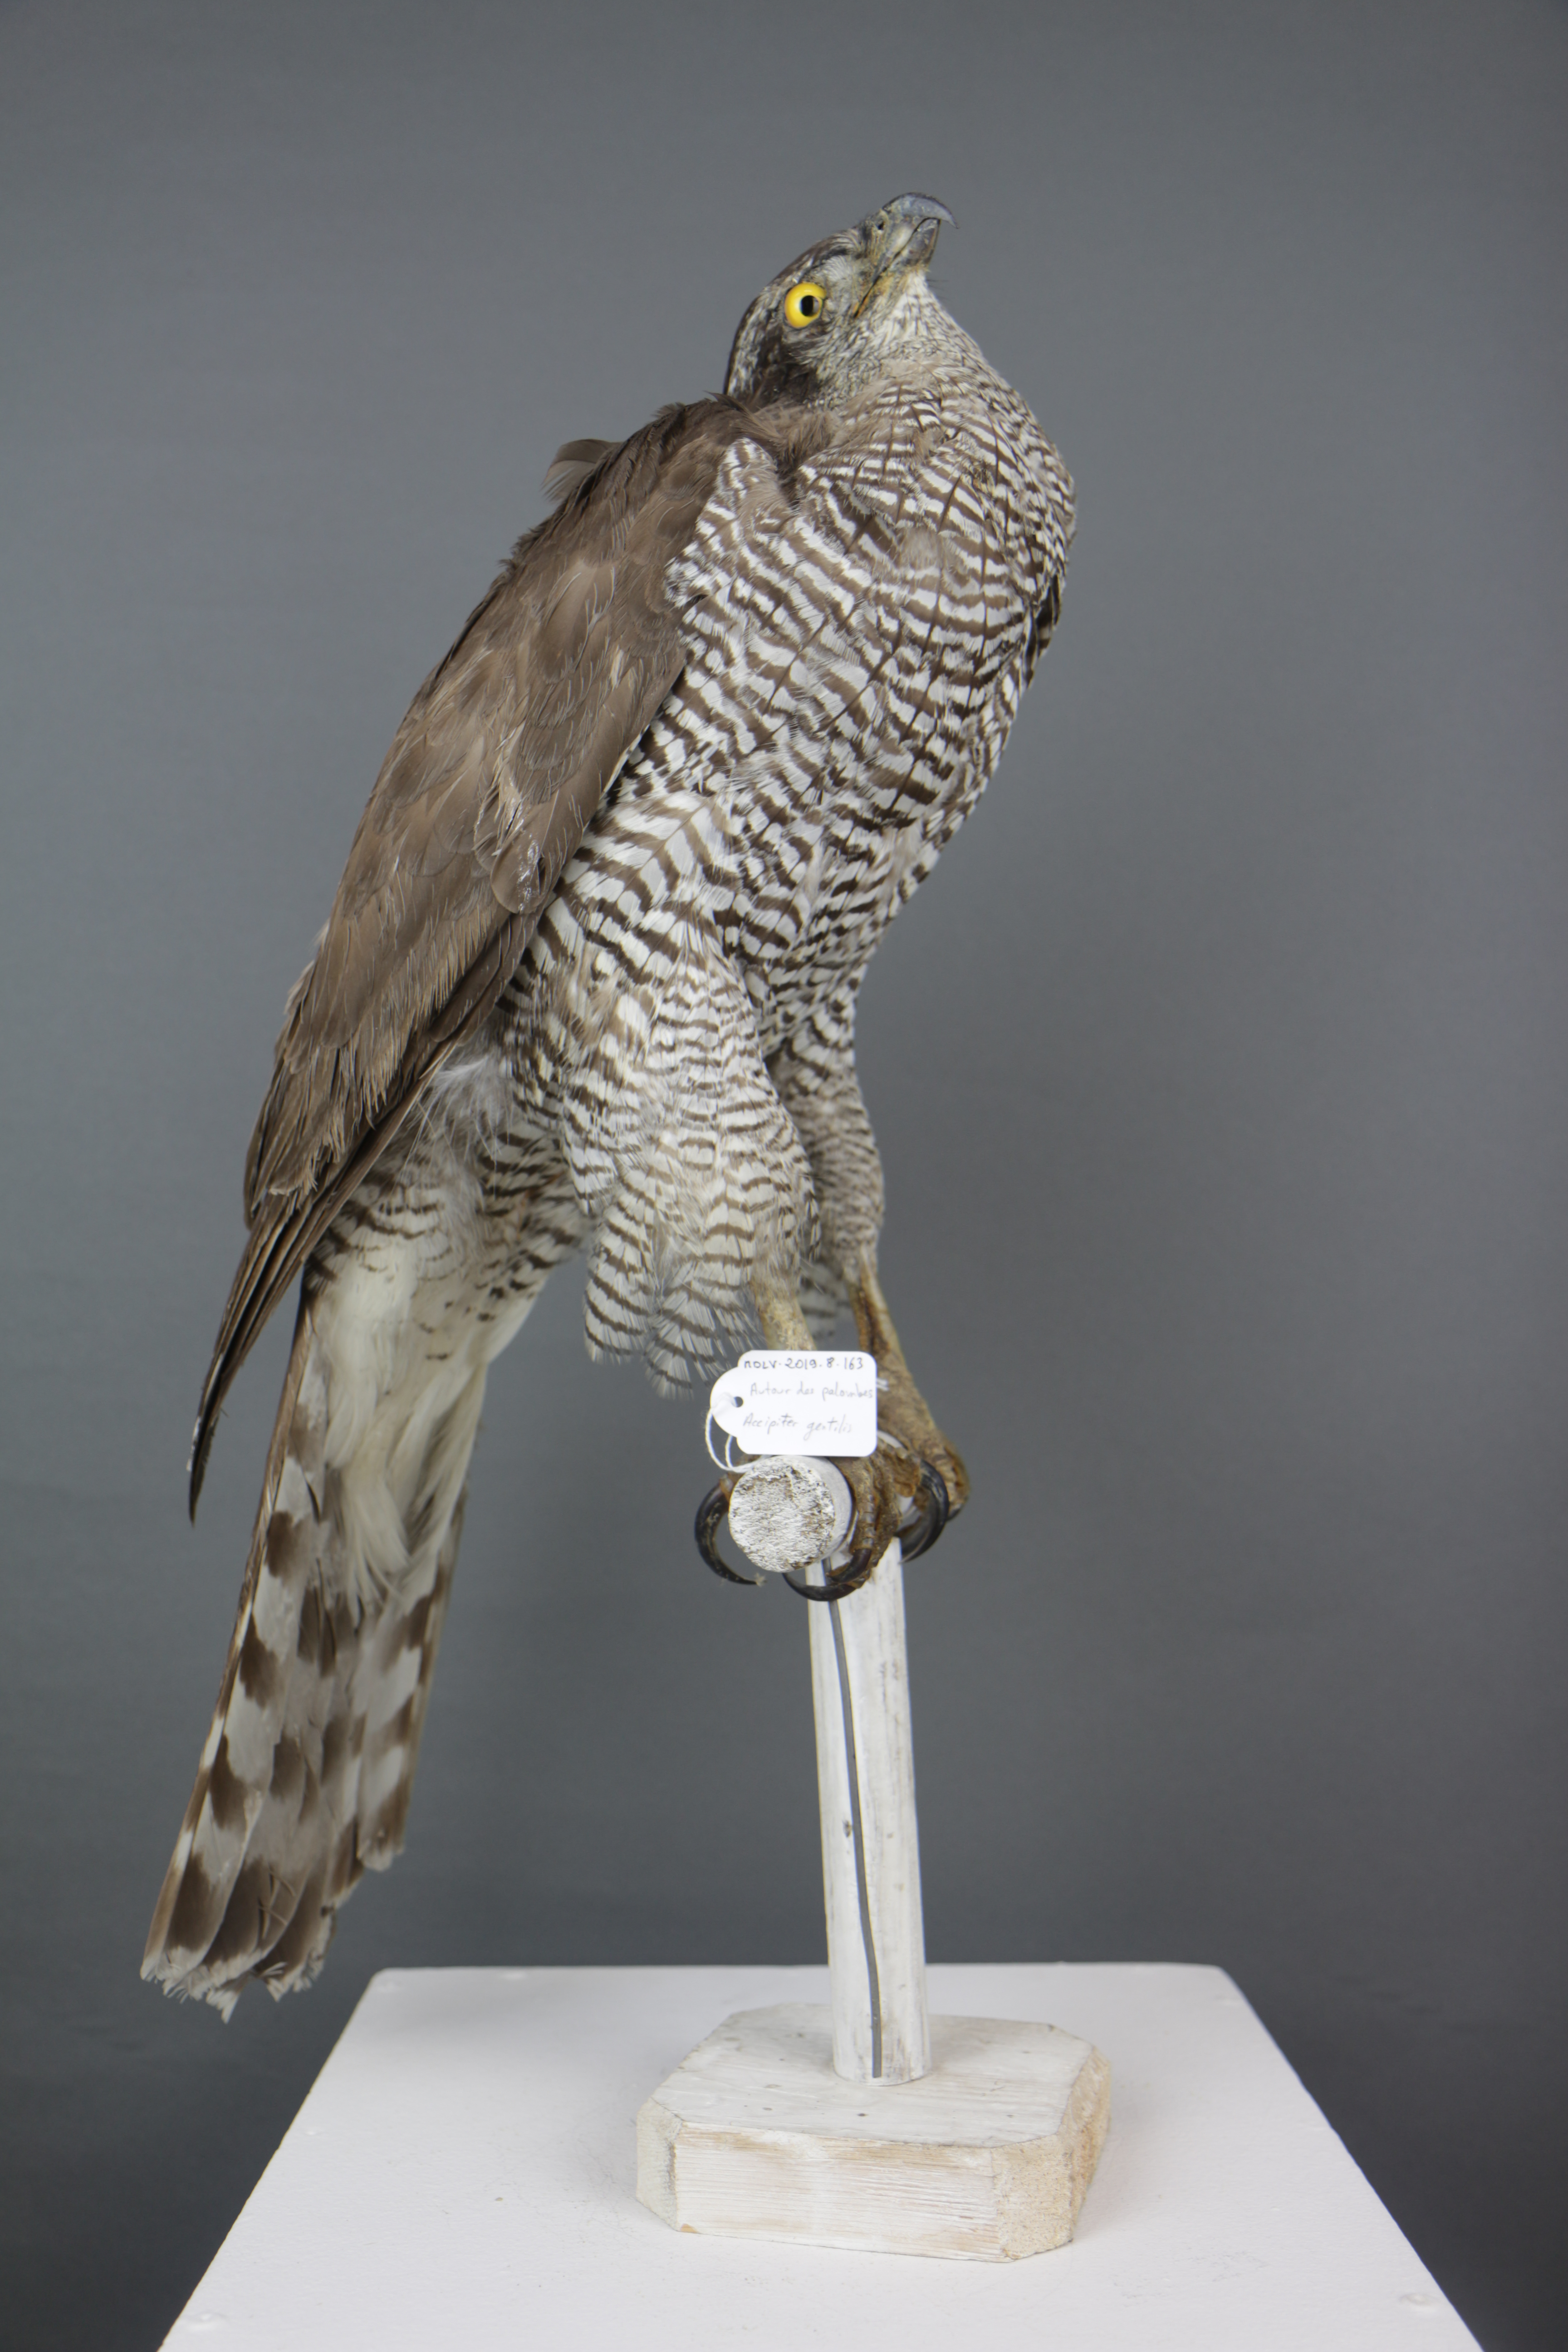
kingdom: Animalia
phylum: Chordata
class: Aves
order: Accipitriformes
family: Accipitridae
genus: Accipiter
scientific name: Accipiter gentilis
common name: Northern goshawk
